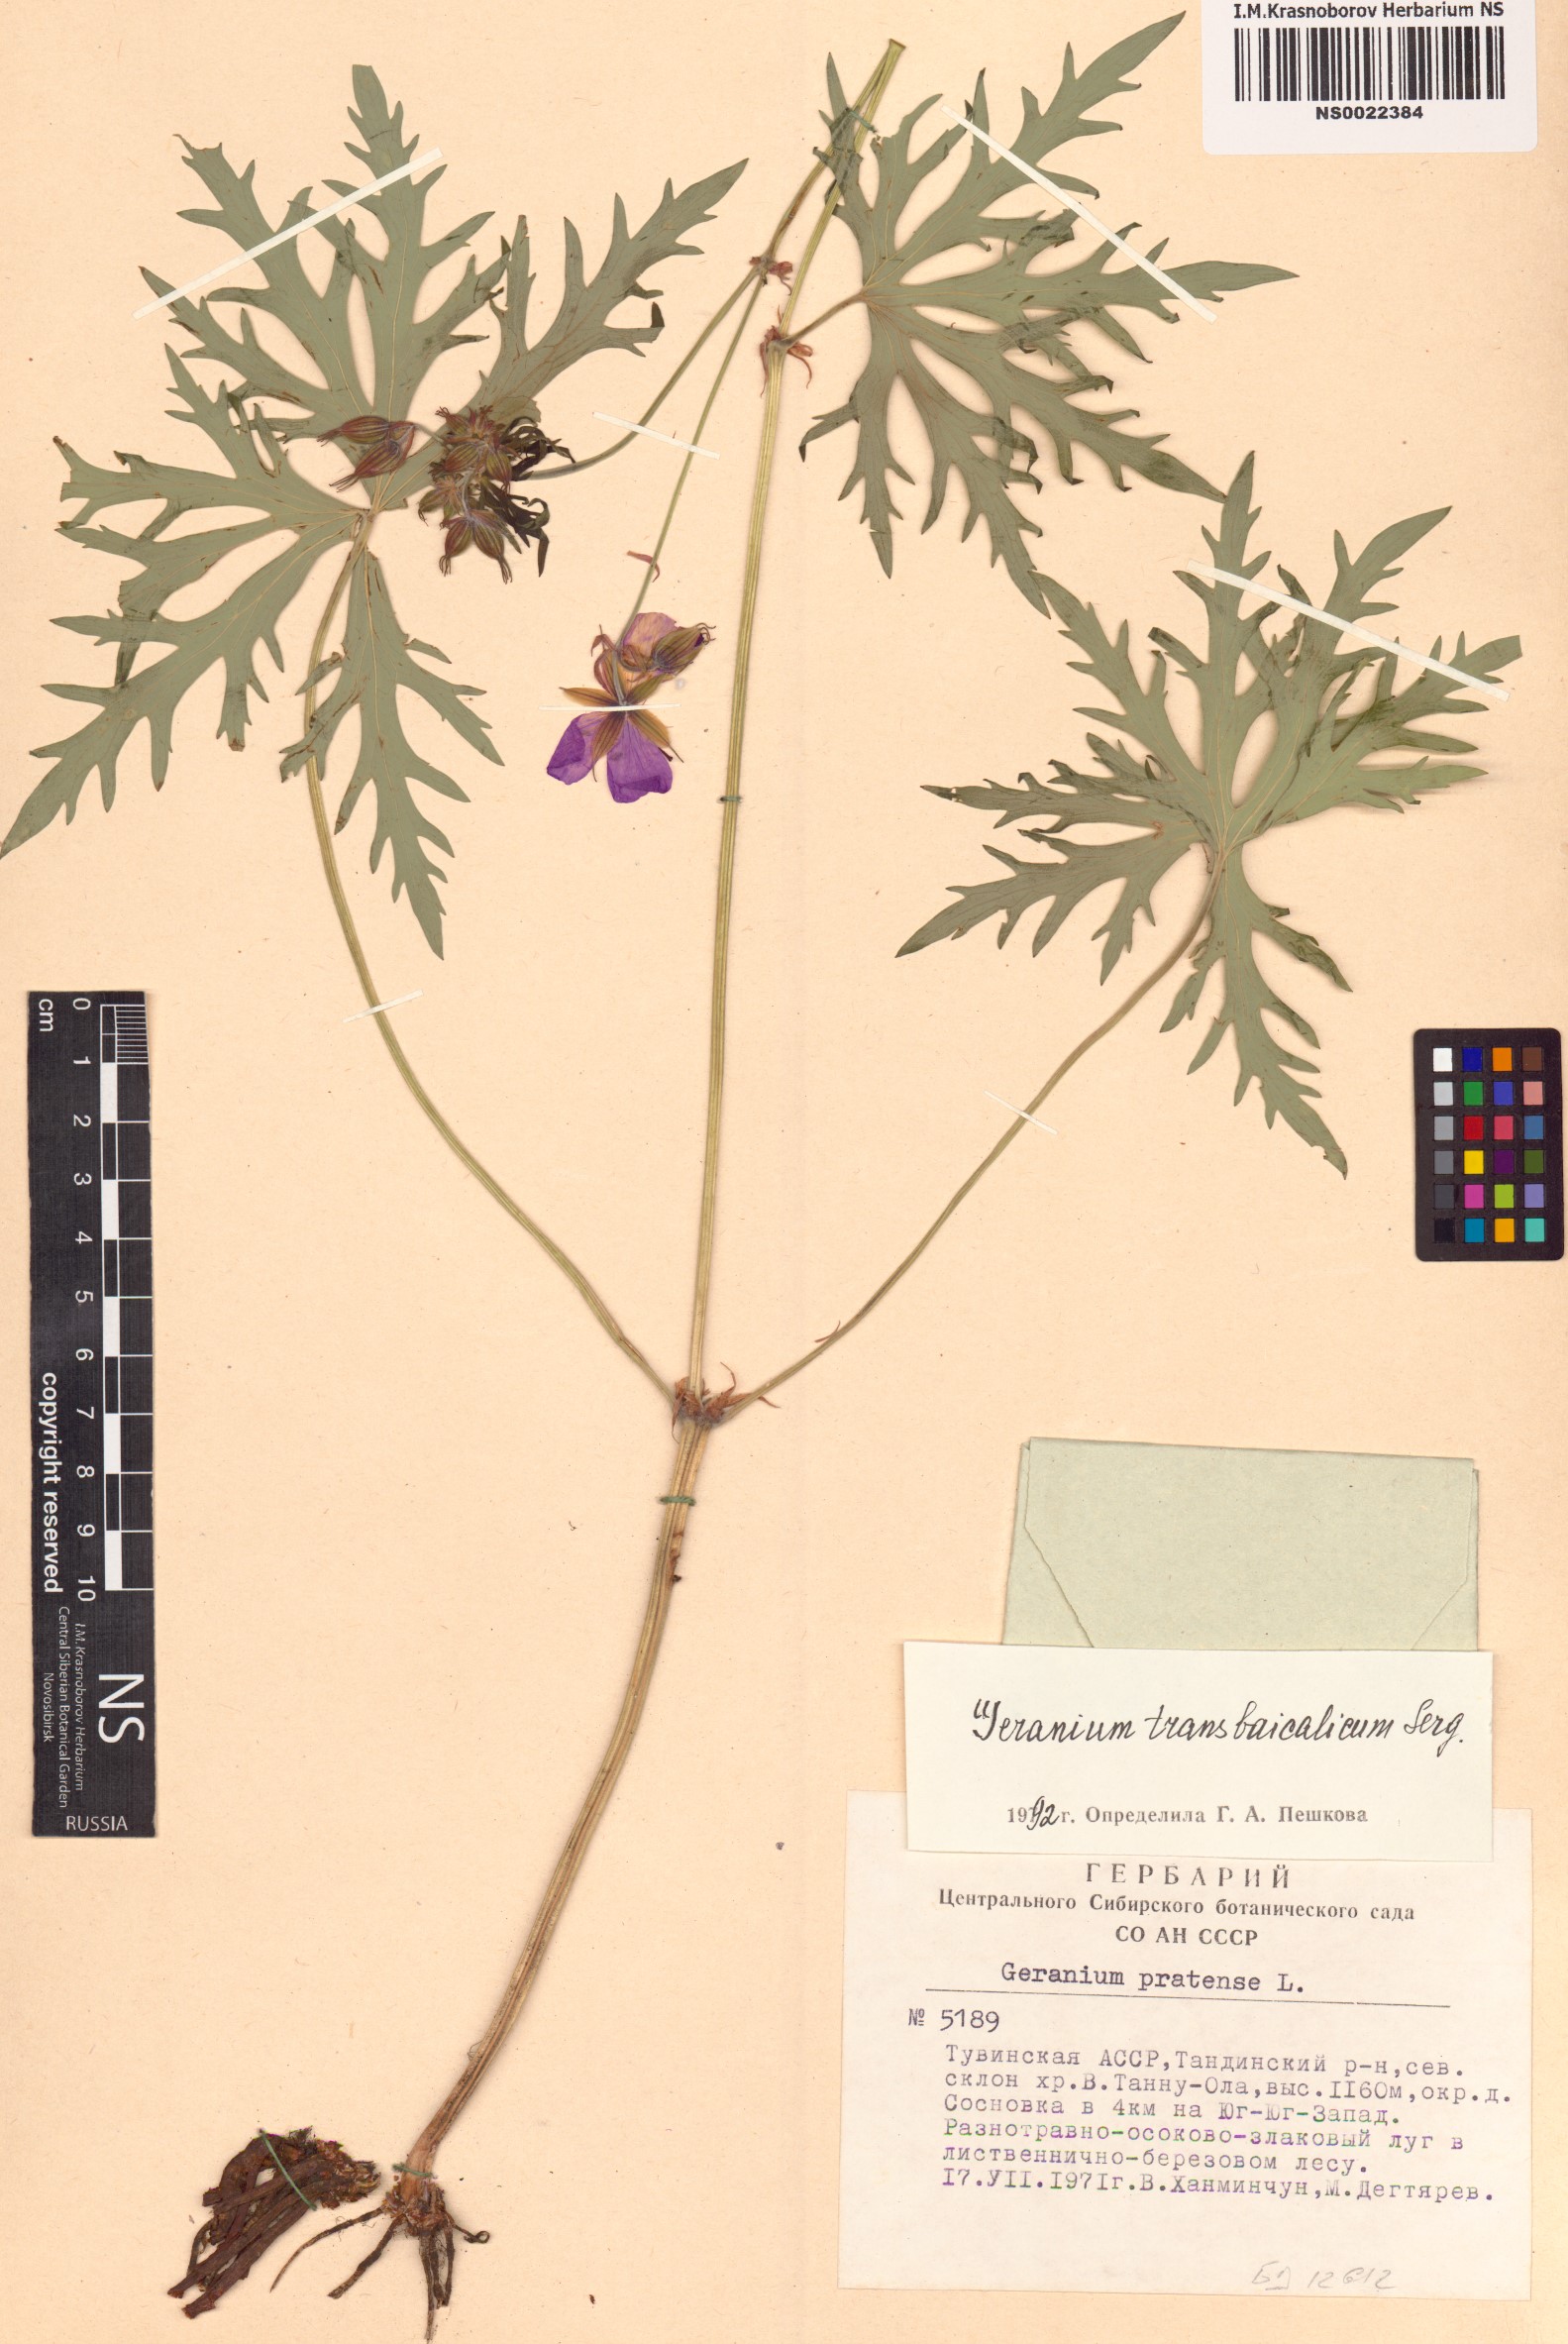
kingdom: Plantae
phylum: Tracheophyta
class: Magnoliopsida
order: Geraniales
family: Geraniaceae
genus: Geranium
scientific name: Geranium pratense
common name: Meadow crane's-bill
